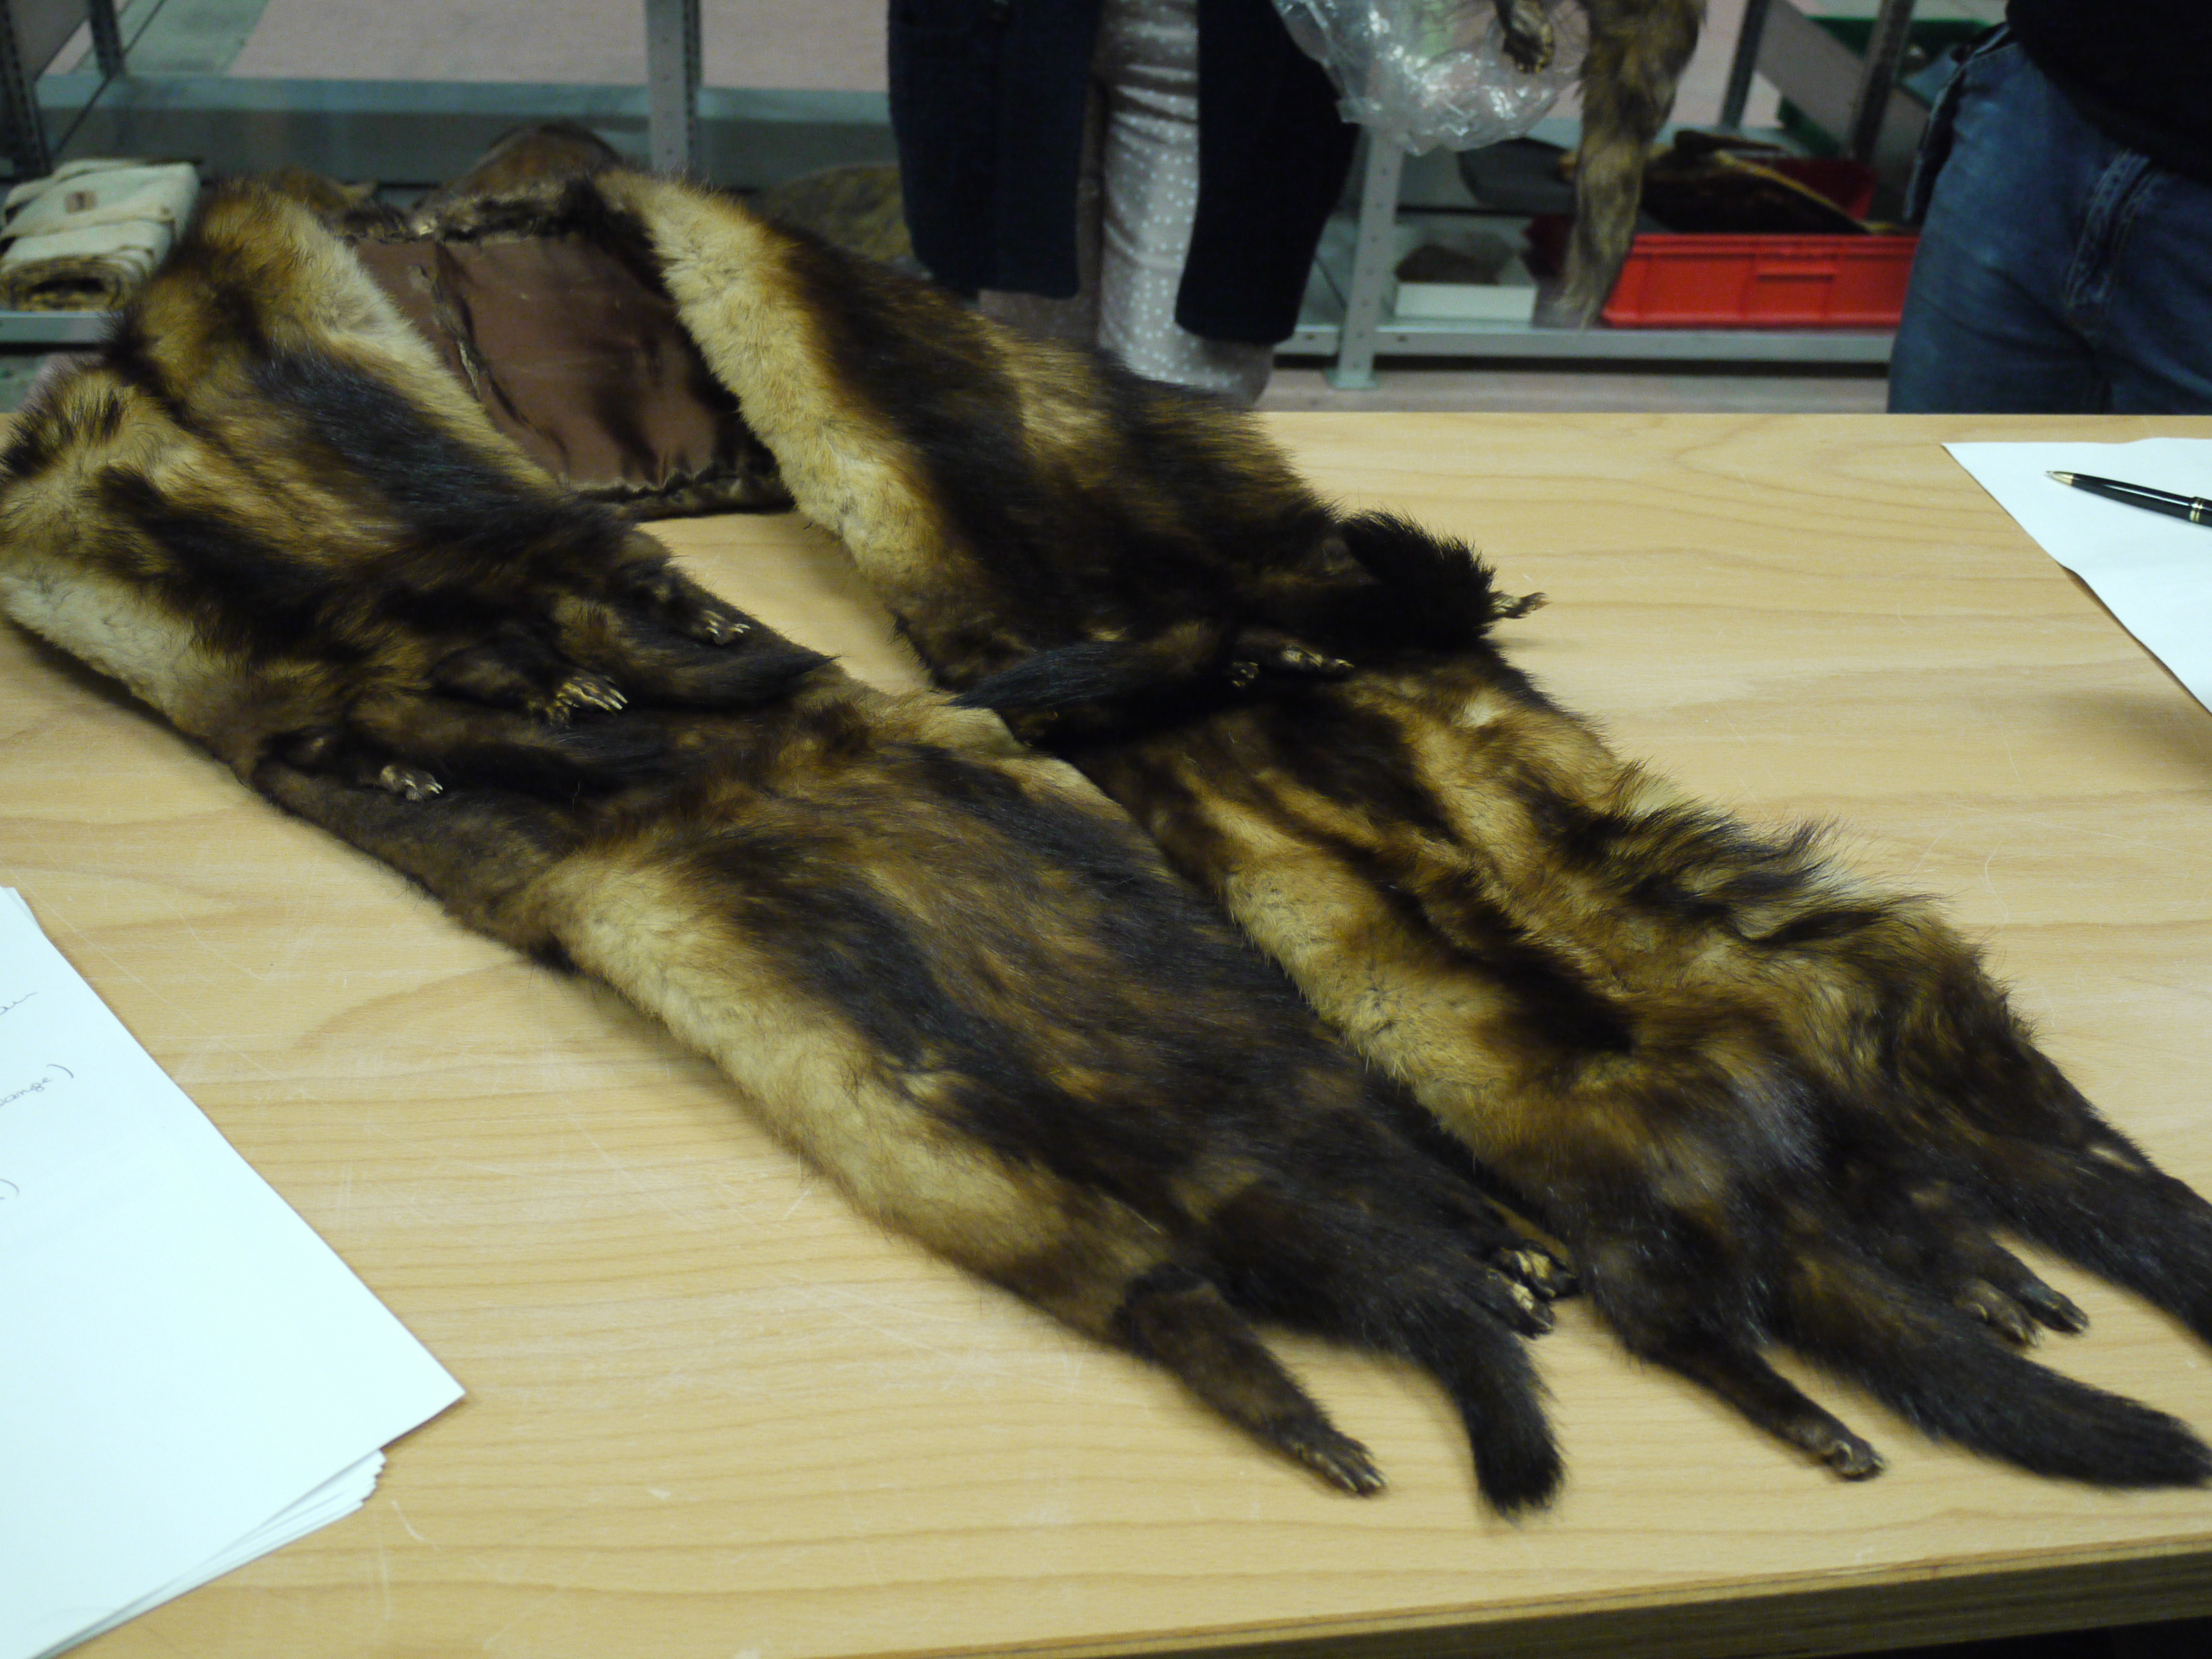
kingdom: Animalia
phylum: Chordata
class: Mammalia
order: Carnivora
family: Mustelidae
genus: Mustela
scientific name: Mustela putorius
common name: European polecat
